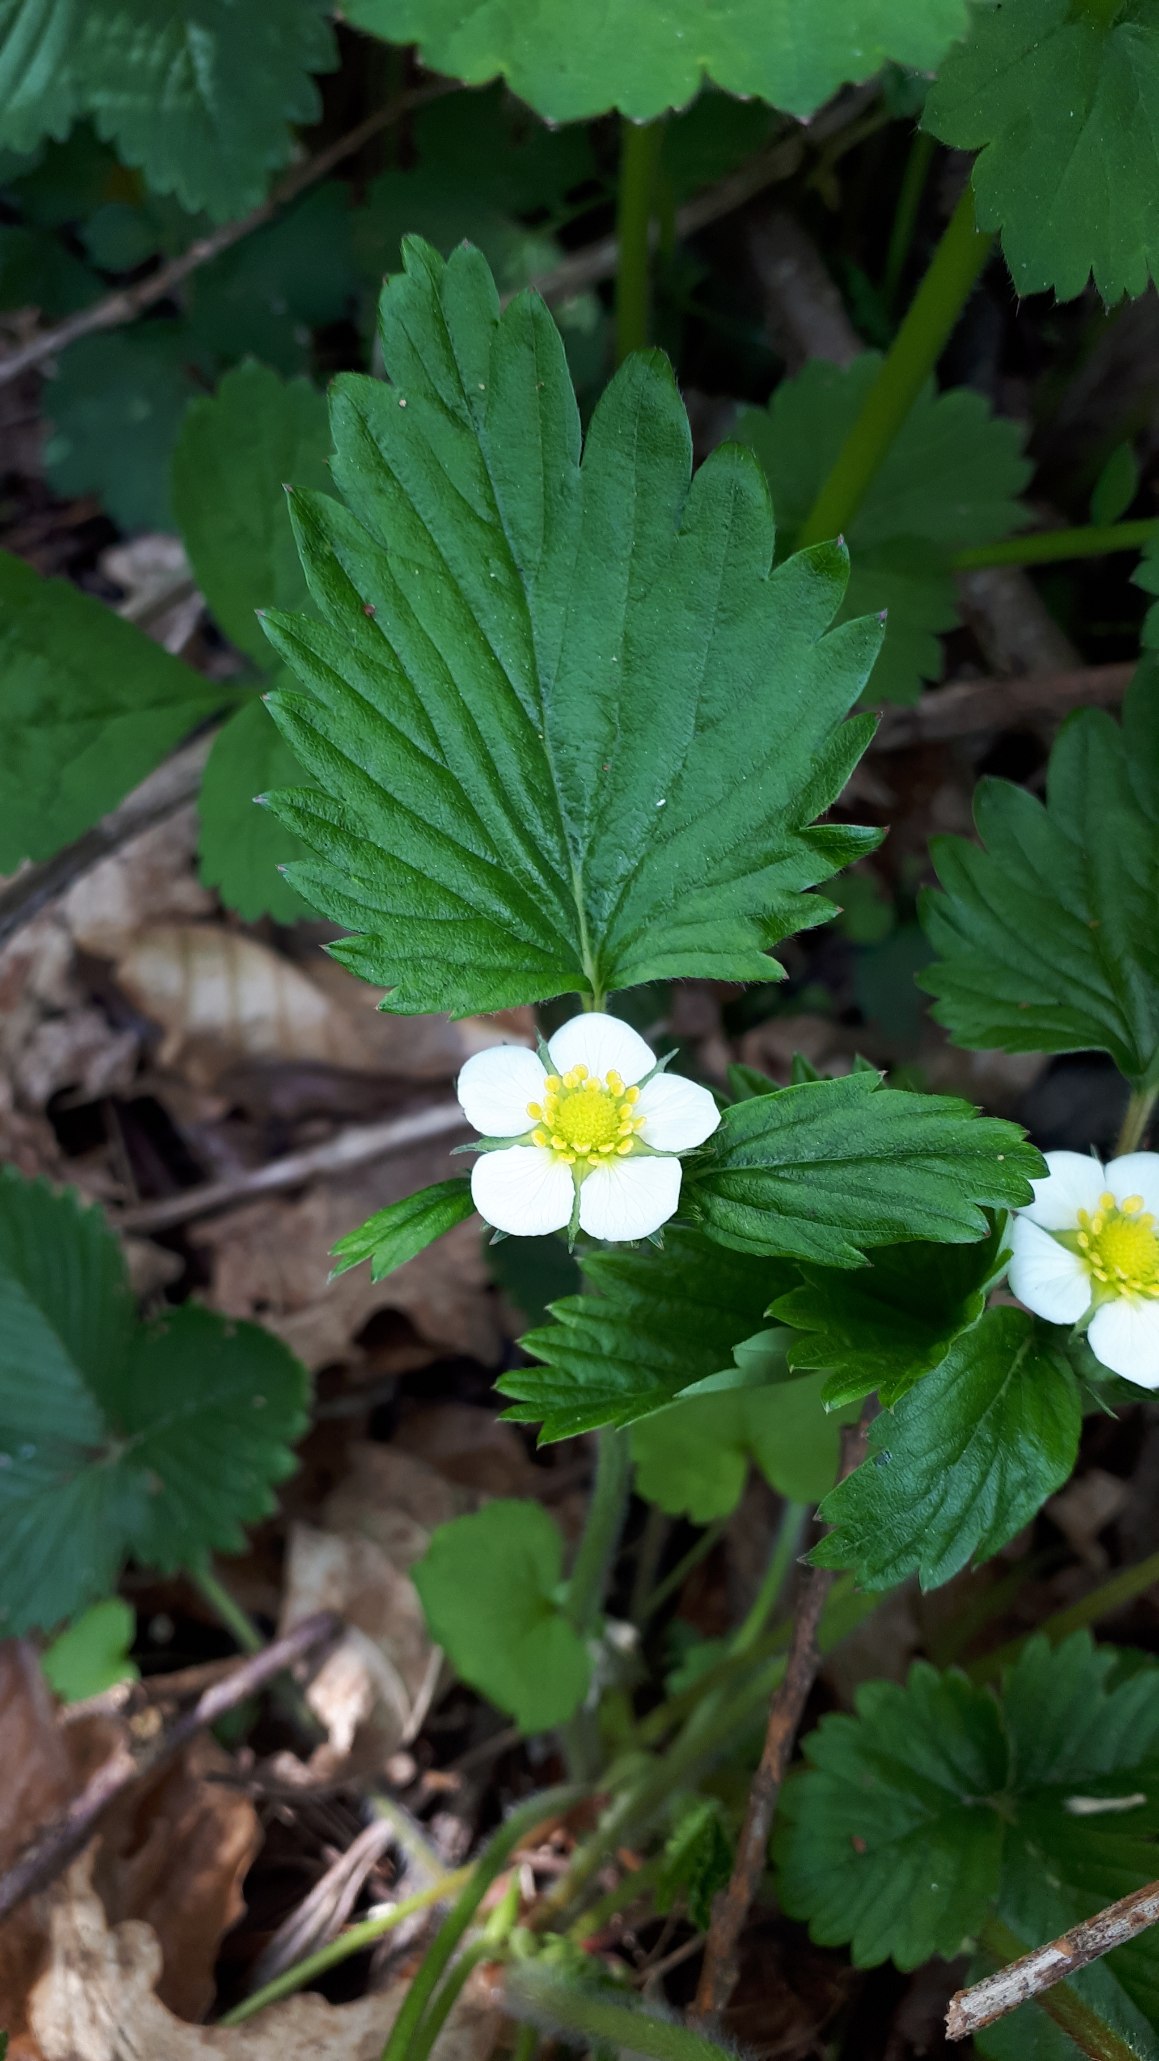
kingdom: Plantae
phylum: Tracheophyta
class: Magnoliopsida
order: Rosales
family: Rosaceae
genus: Fragaria
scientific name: Fragaria vesca
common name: Skov-jordbær
